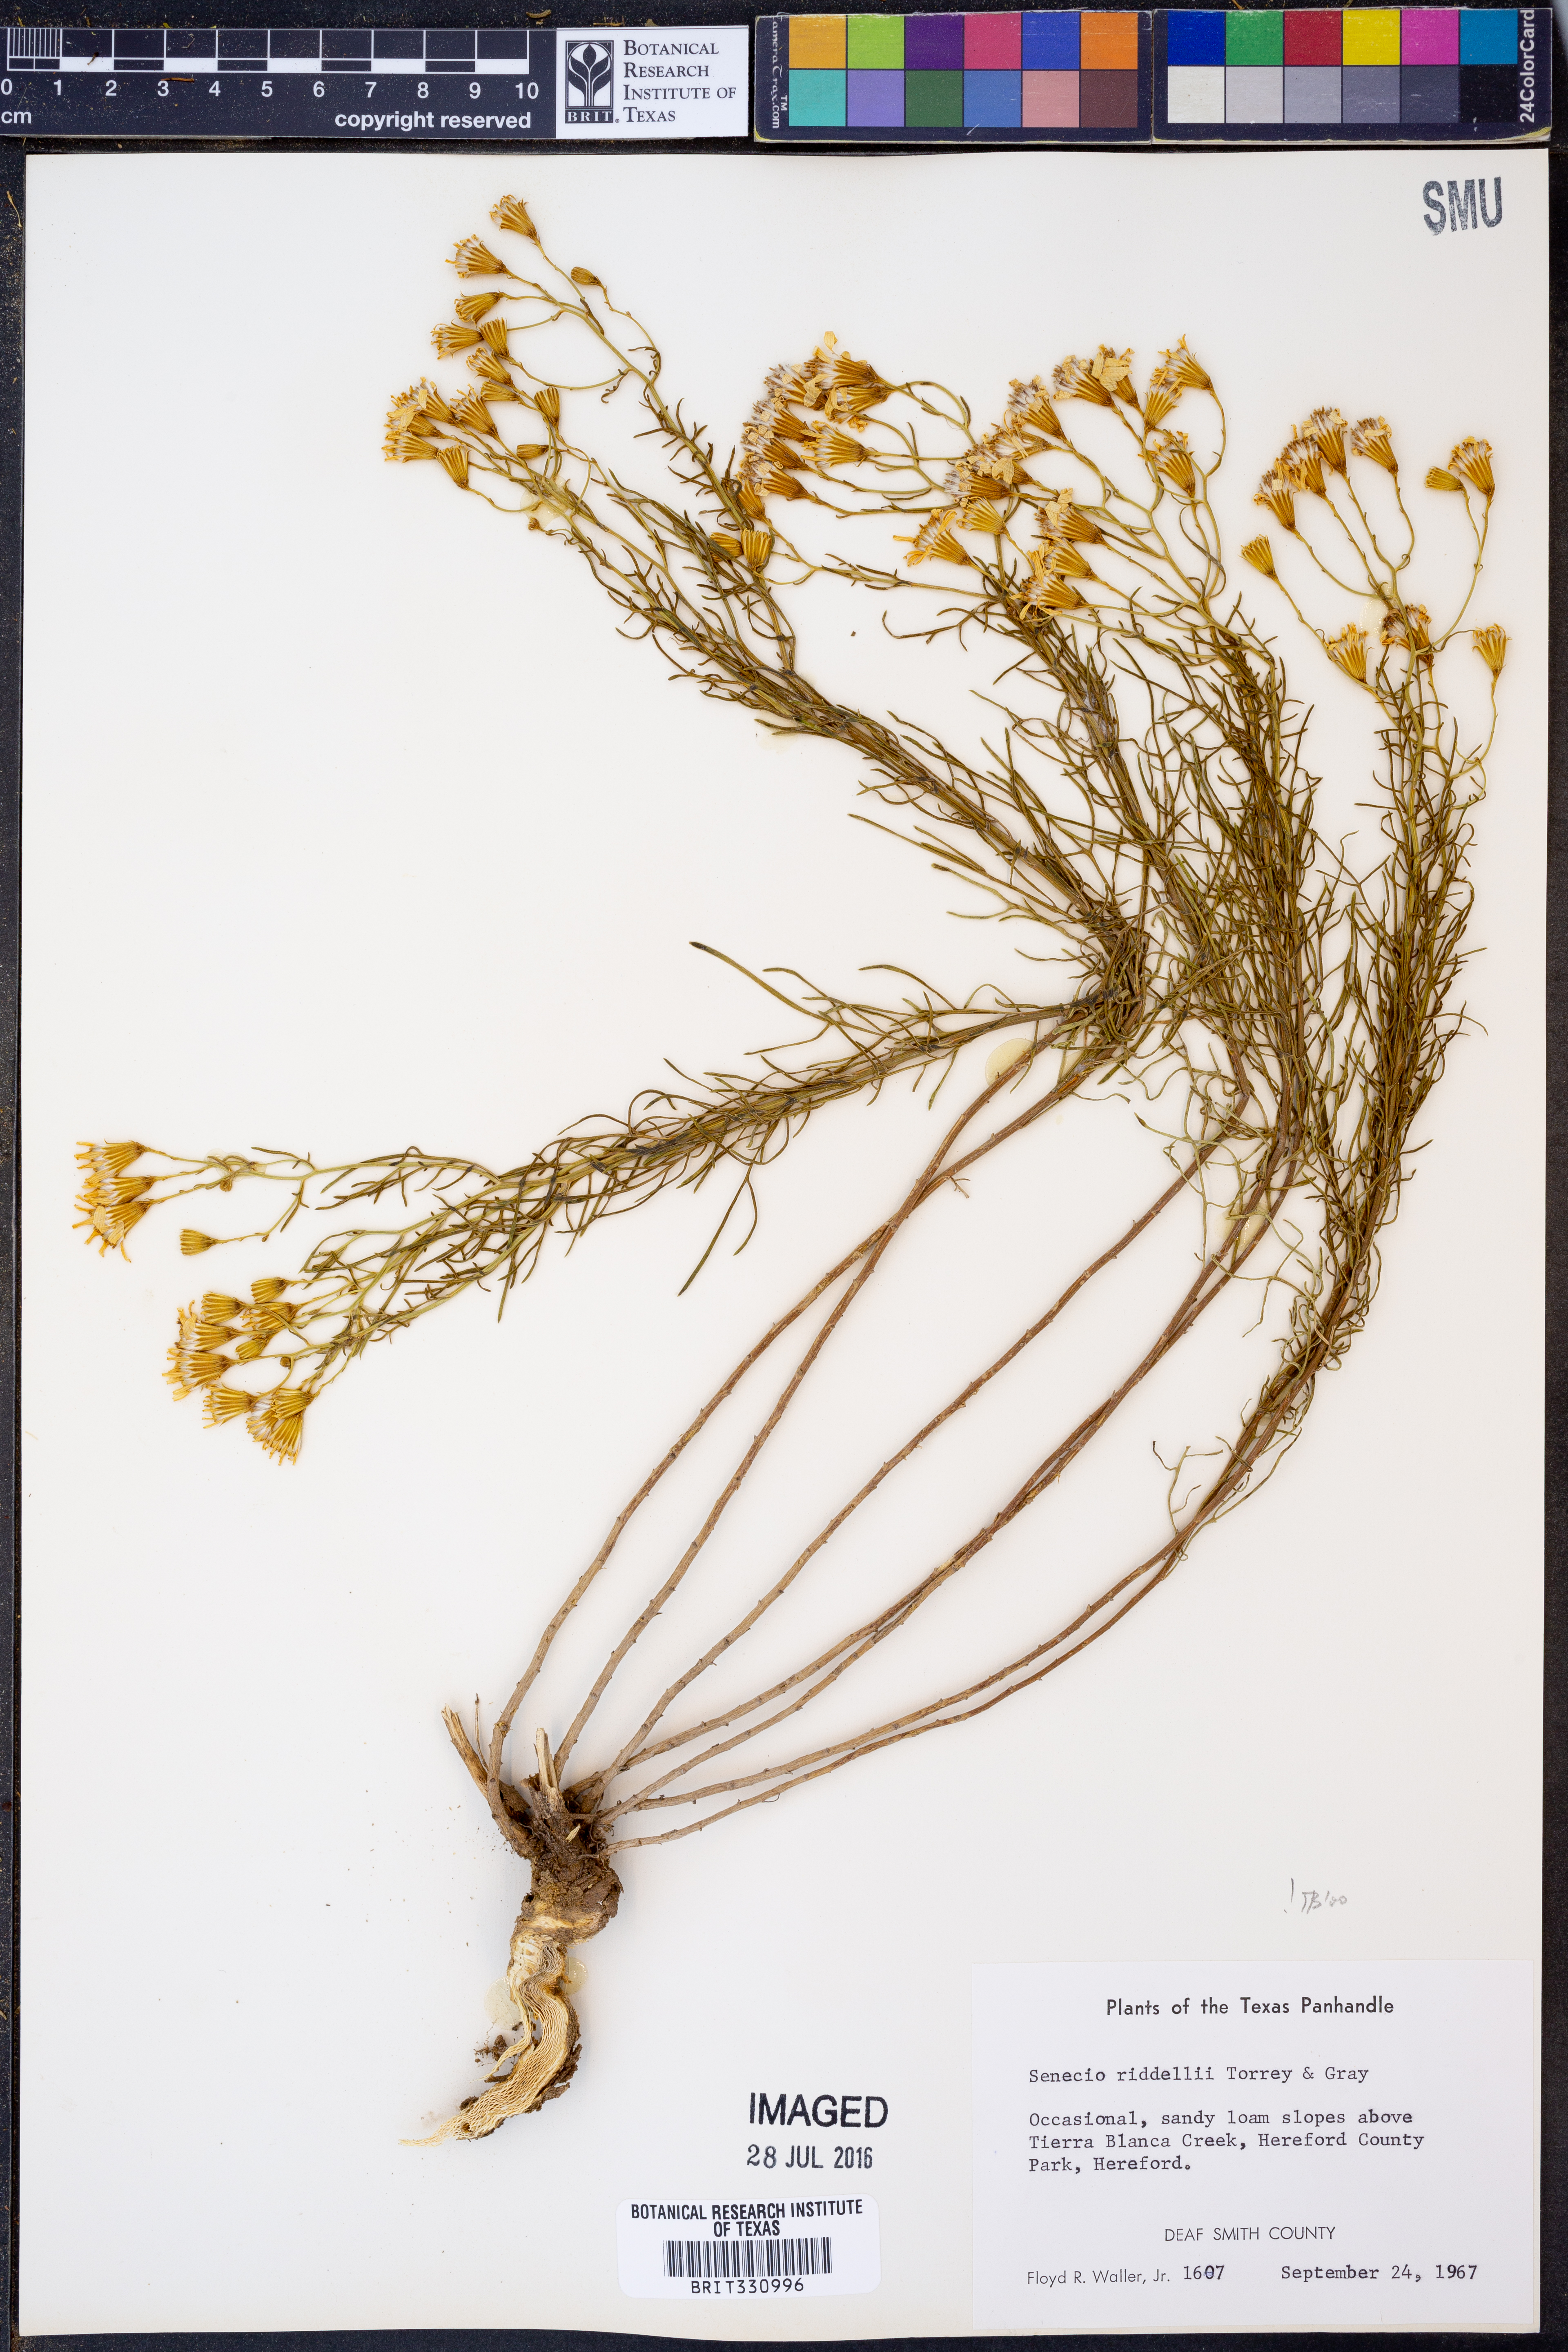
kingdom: Plantae
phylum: Tracheophyta
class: Magnoliopsida
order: Asterales
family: Asteraceae
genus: Senecio
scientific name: Senecio riddellii
